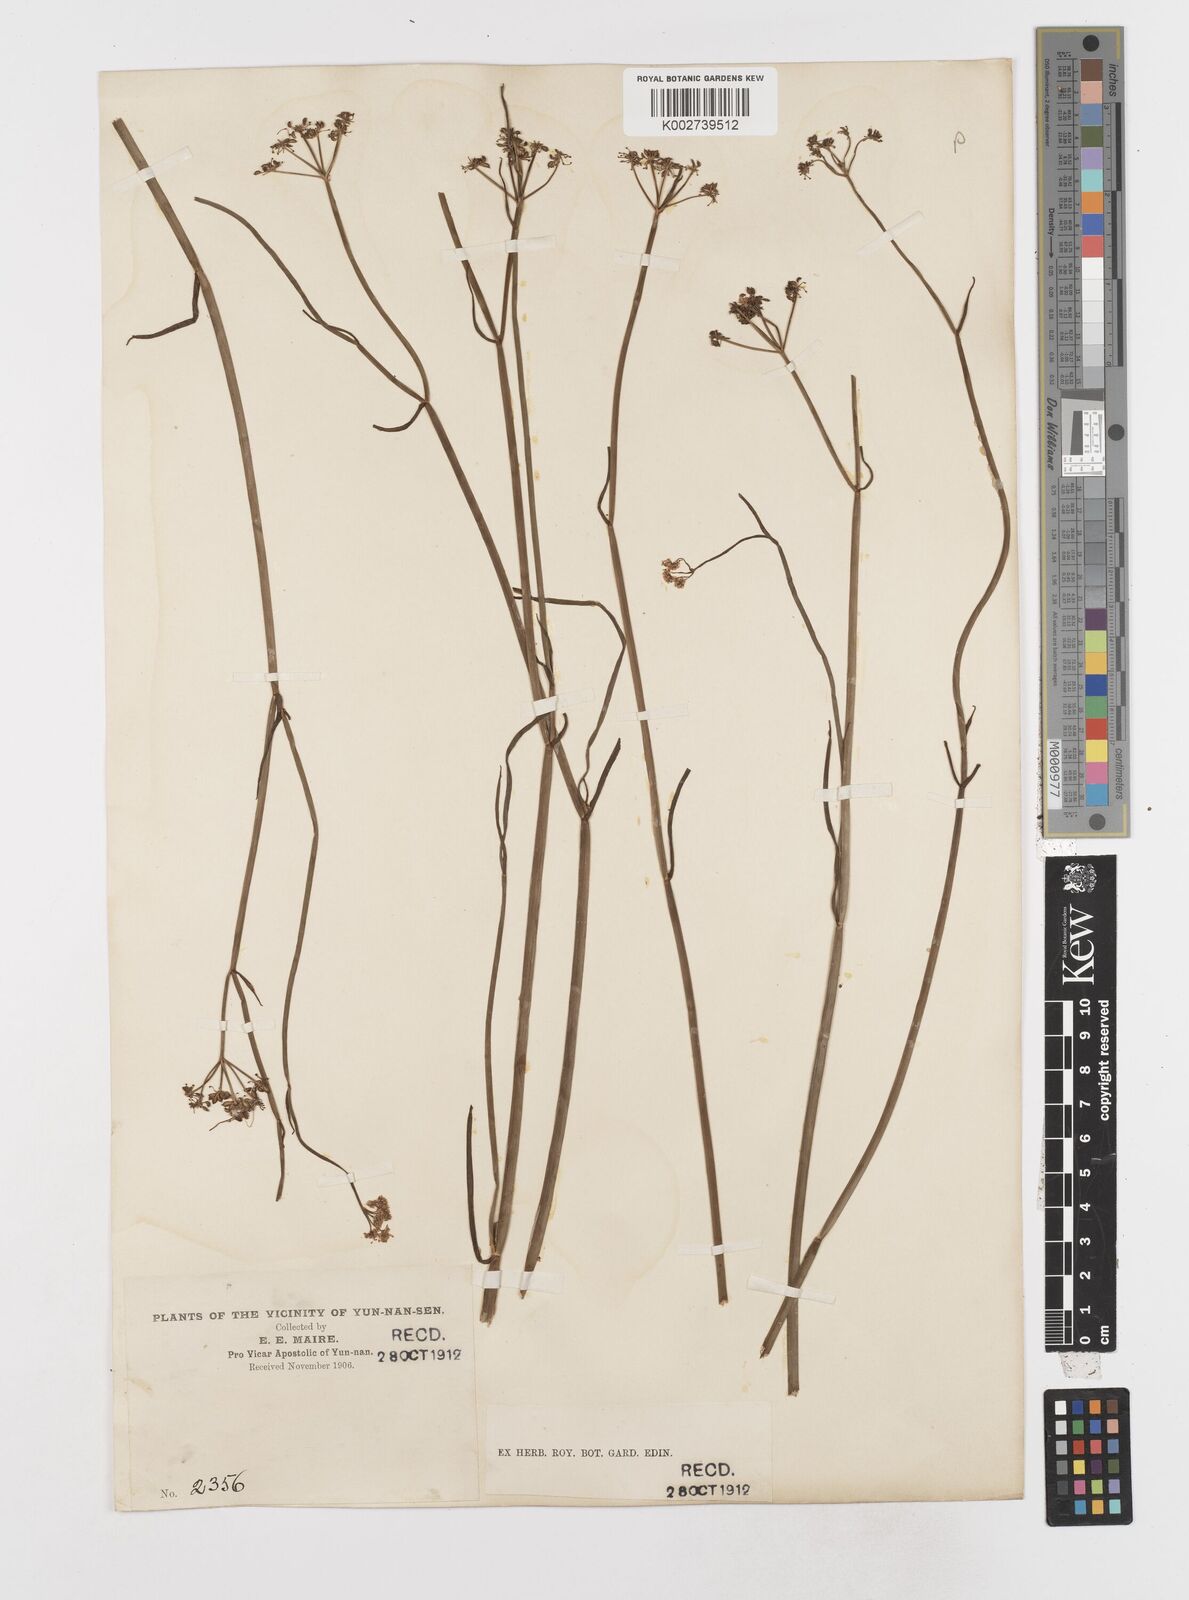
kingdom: Plantae
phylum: Tracheophyta
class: Magnoliopsida
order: Apiales
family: Apiaceae
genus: Oenanthe
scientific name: Oenanthe linearis
